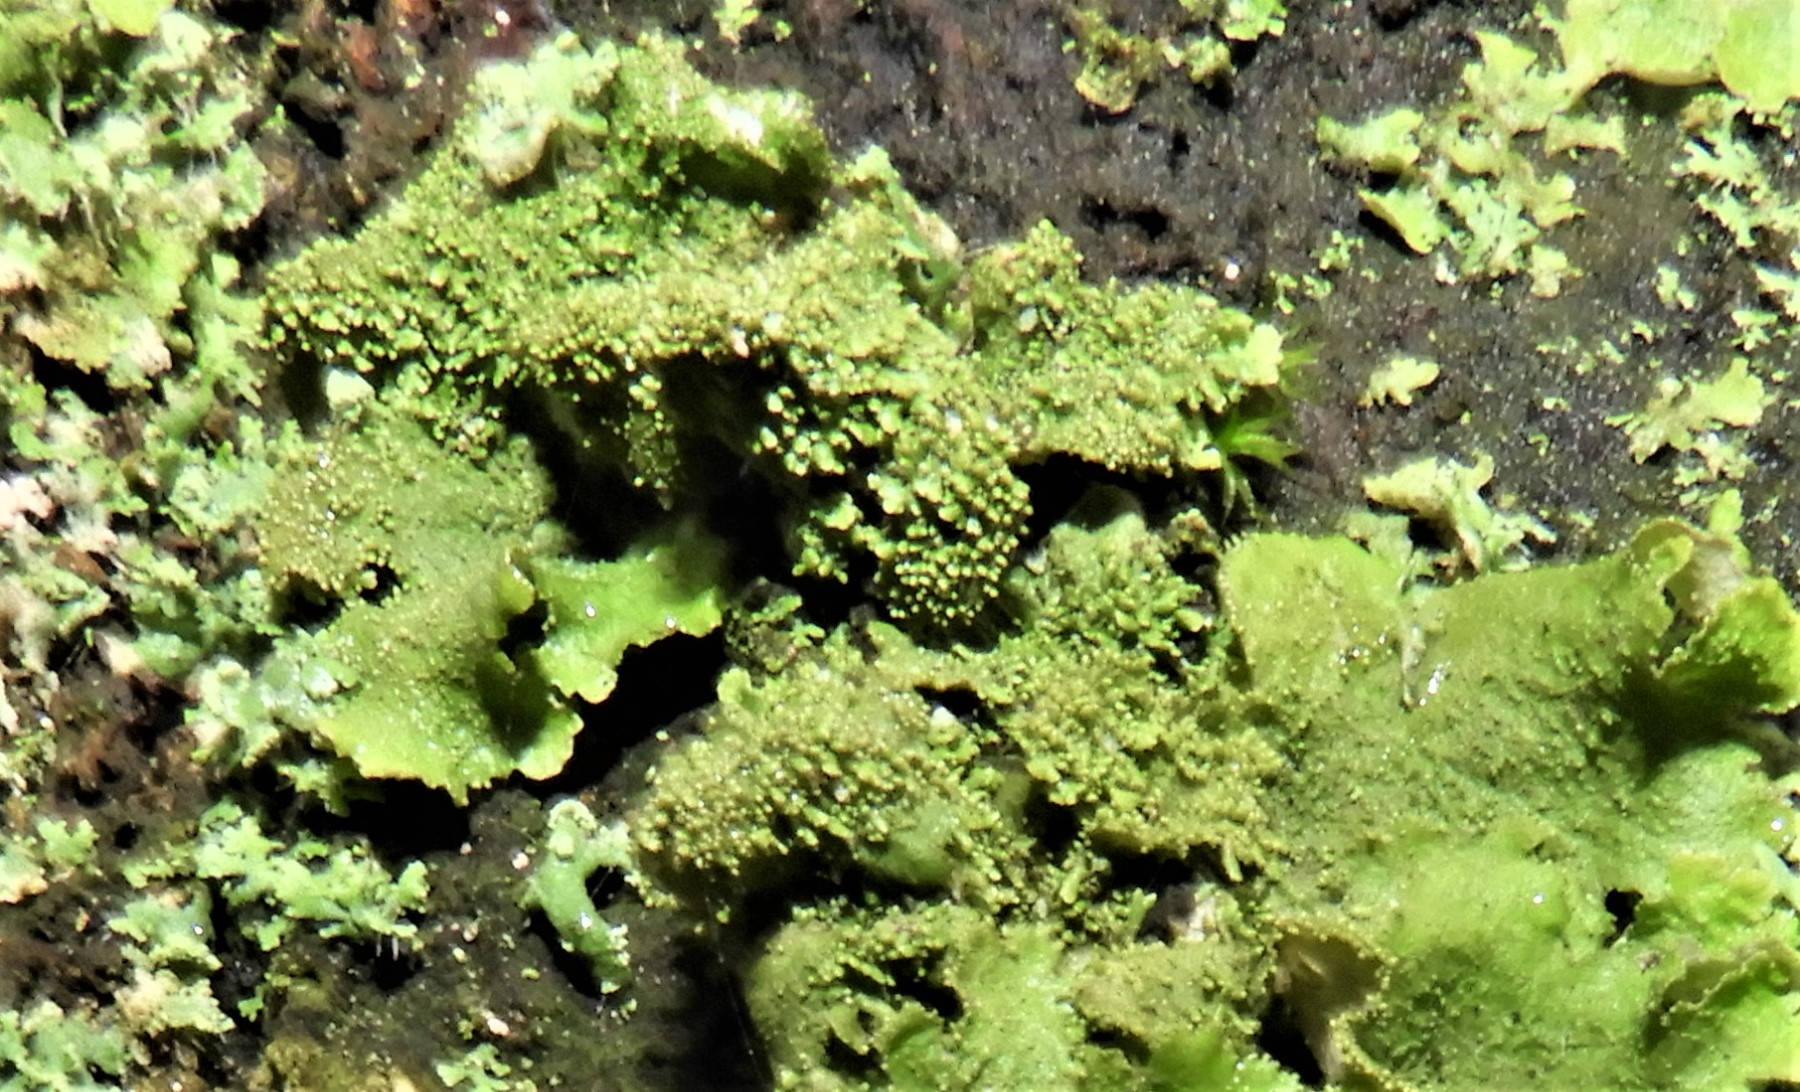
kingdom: Fungi
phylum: Ascomycota
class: Lecanoromycetes
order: Lecanorales
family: Parmeliaceae
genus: Melanohalea
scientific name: Melanohalea exasperatula
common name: kølle-skållav
